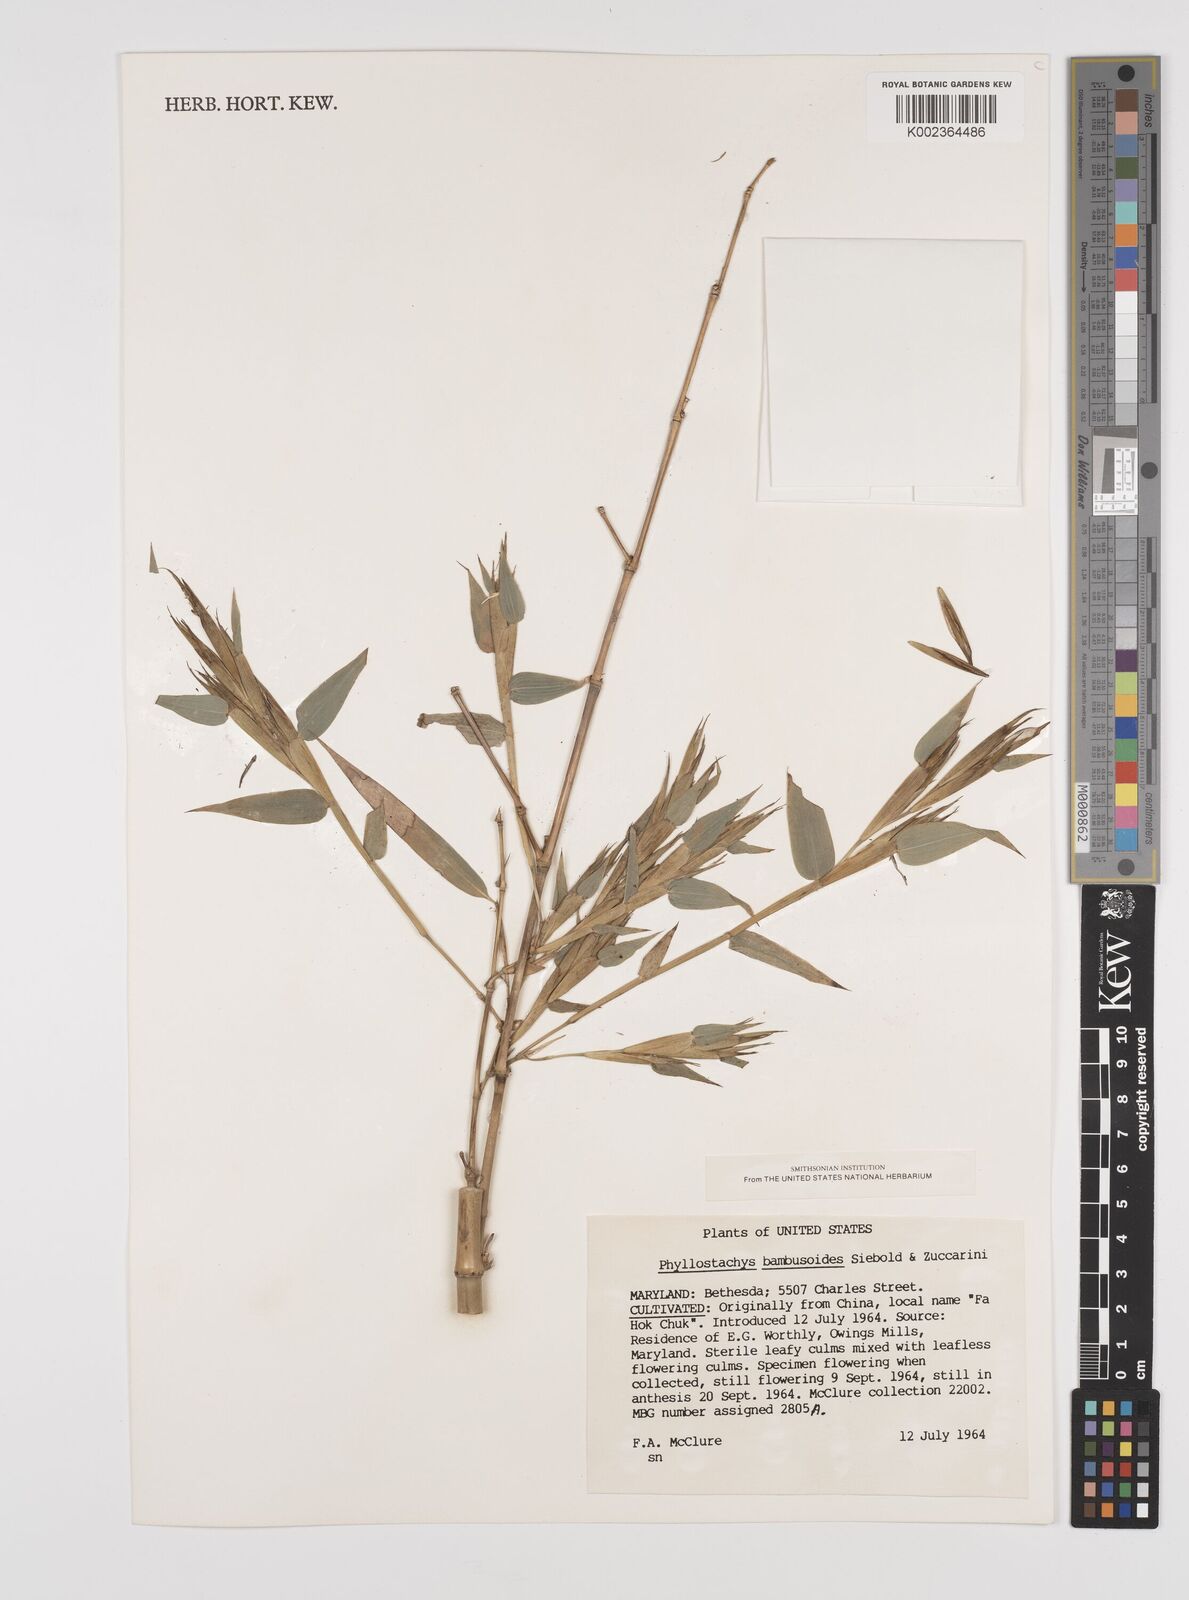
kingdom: Plantae
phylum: Tracheophyta
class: Liliopsida
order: Poales
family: Poaceae
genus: Phyllostachys
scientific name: Phyllostachys reticulata
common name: Bamboo
